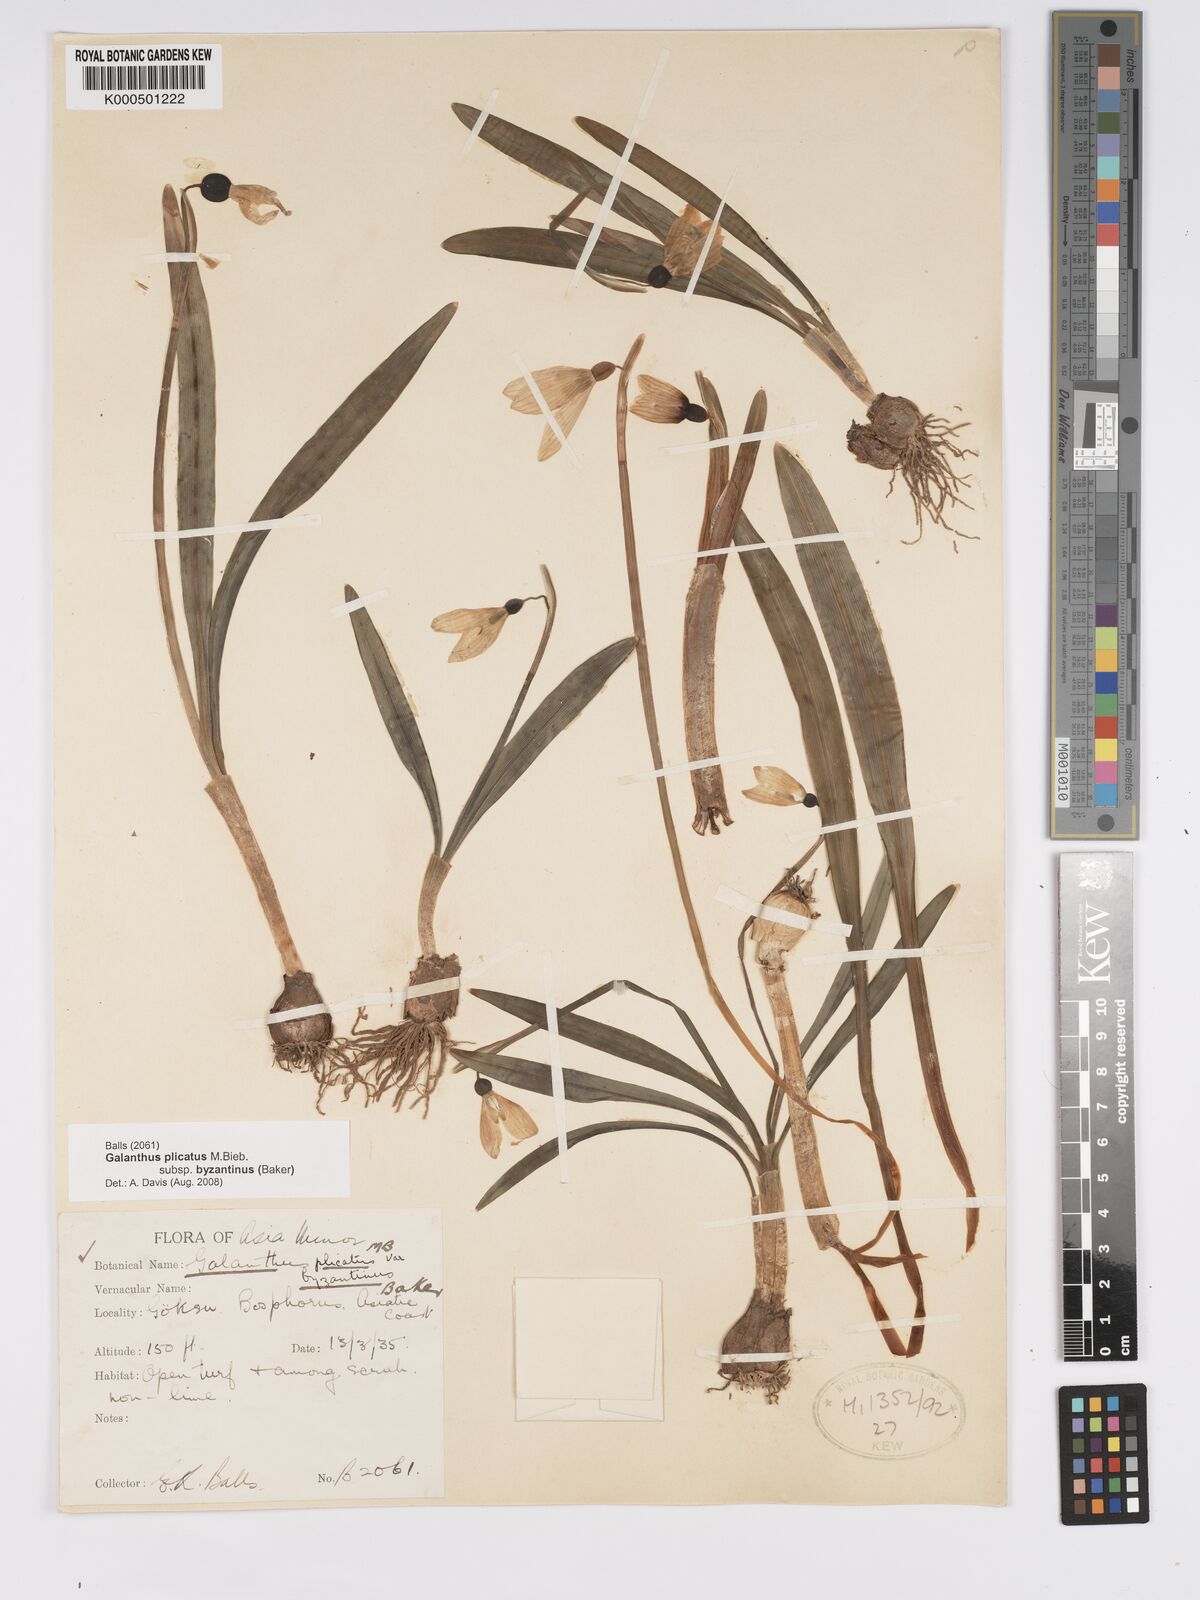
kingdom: Plantae
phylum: Tracheophyta
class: Liliopsida
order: Asparagales
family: Amaryllidaceae
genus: Galanthus
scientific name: Galanthus plicatus
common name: Pleated snowdrop
